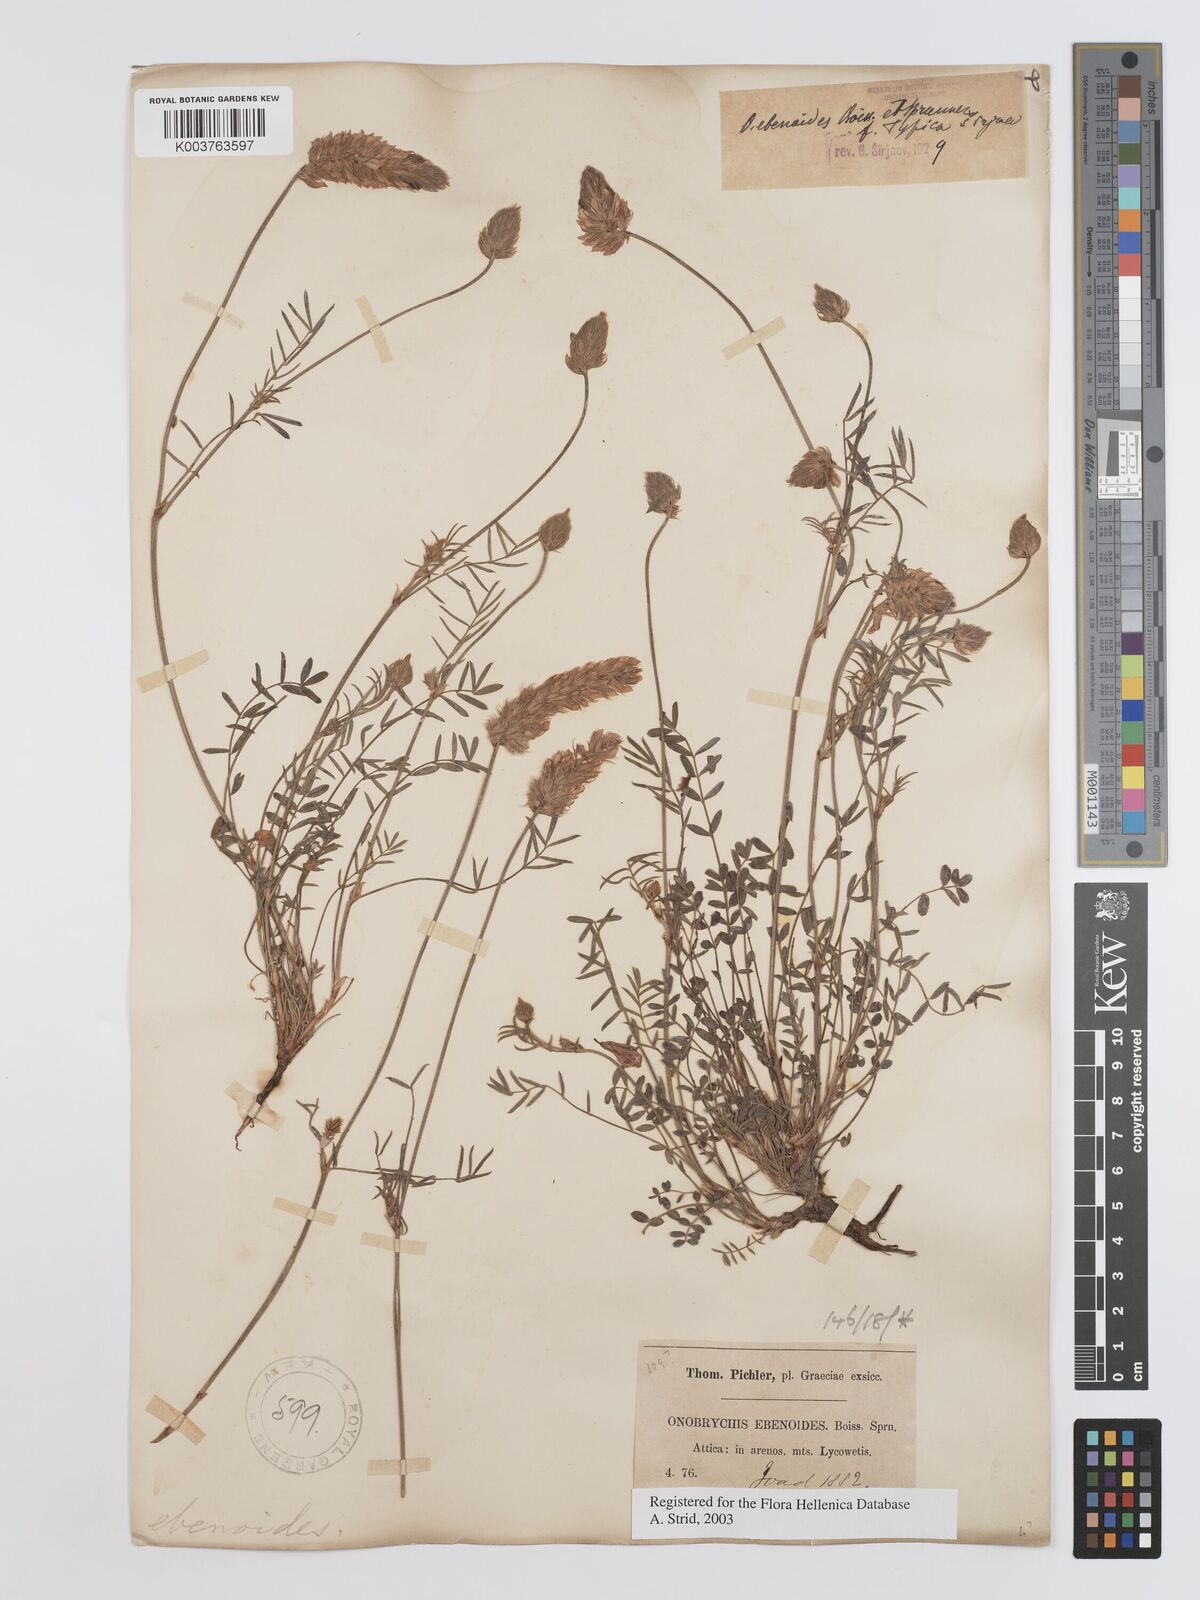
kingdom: Plantae
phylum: Tracheophyta
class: Magnoliopsida
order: Fabales
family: Fabaceae
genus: Onobrychis
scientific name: Onobrychis ebenoides
